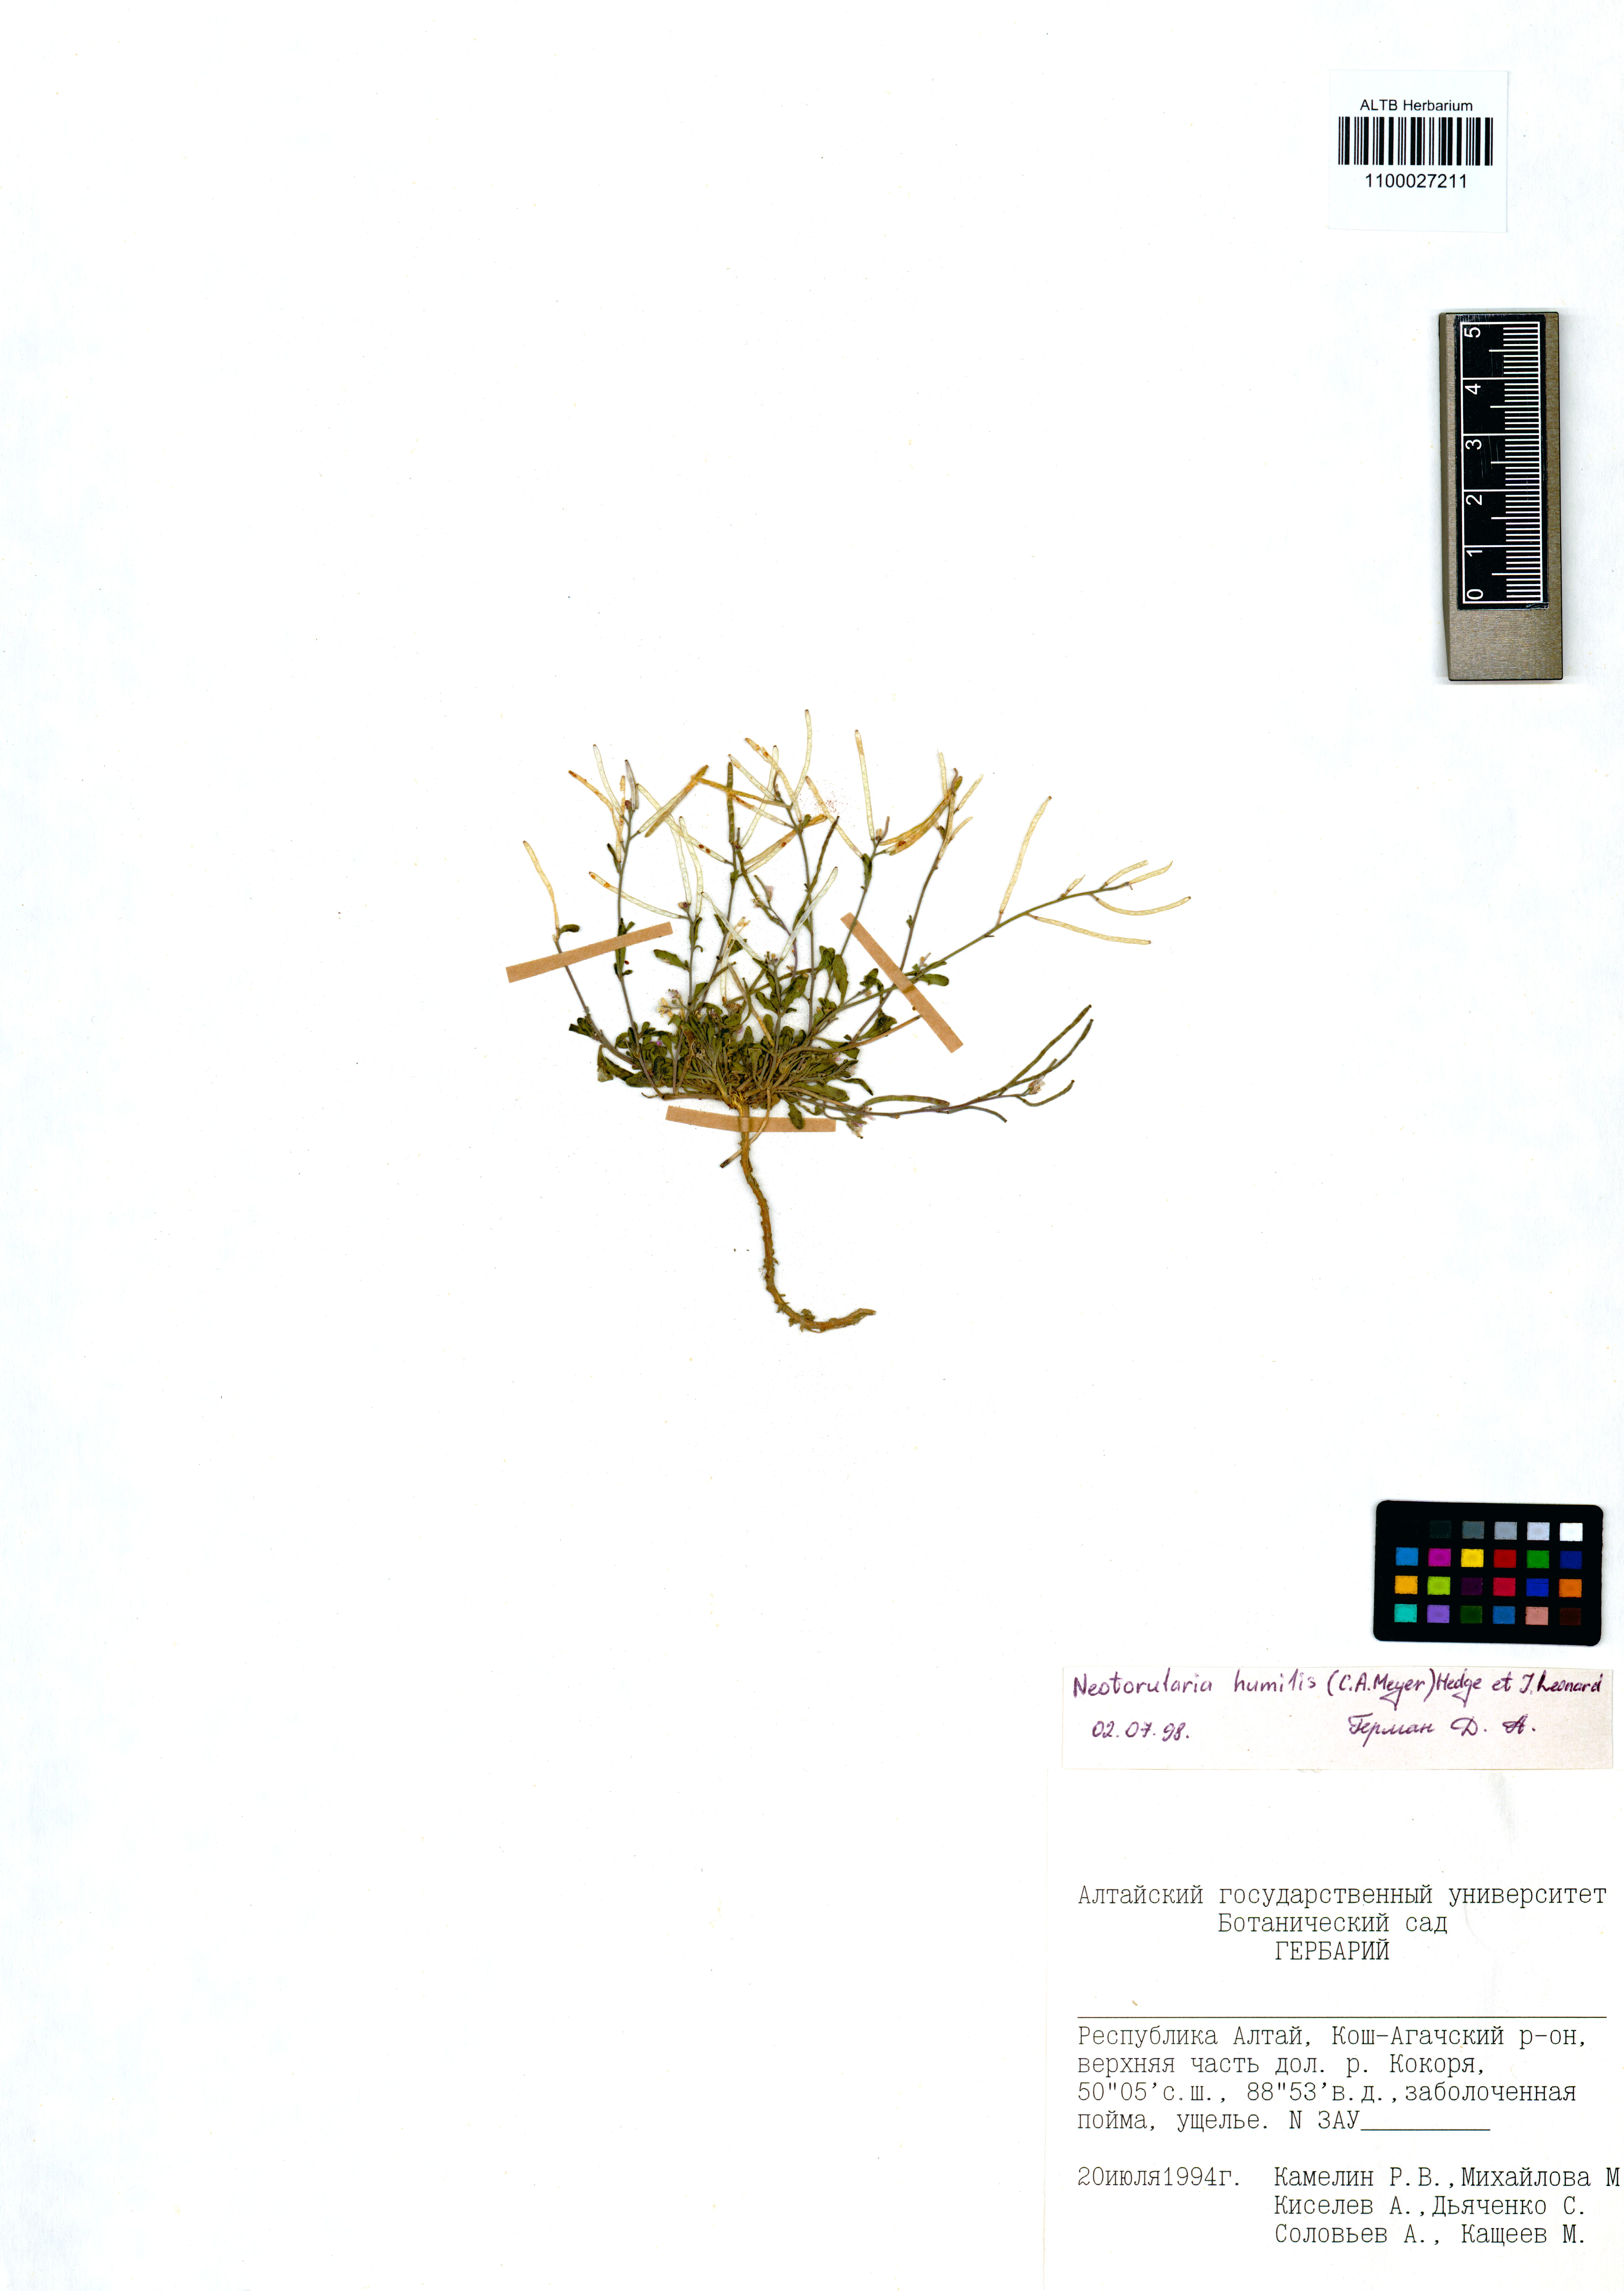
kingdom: Plantae
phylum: Tracheophyta
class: Magnoliopsida
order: Brassicales
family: Brassicaceae
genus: Braya
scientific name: Braya humilis
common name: Alpine northern rockcress
